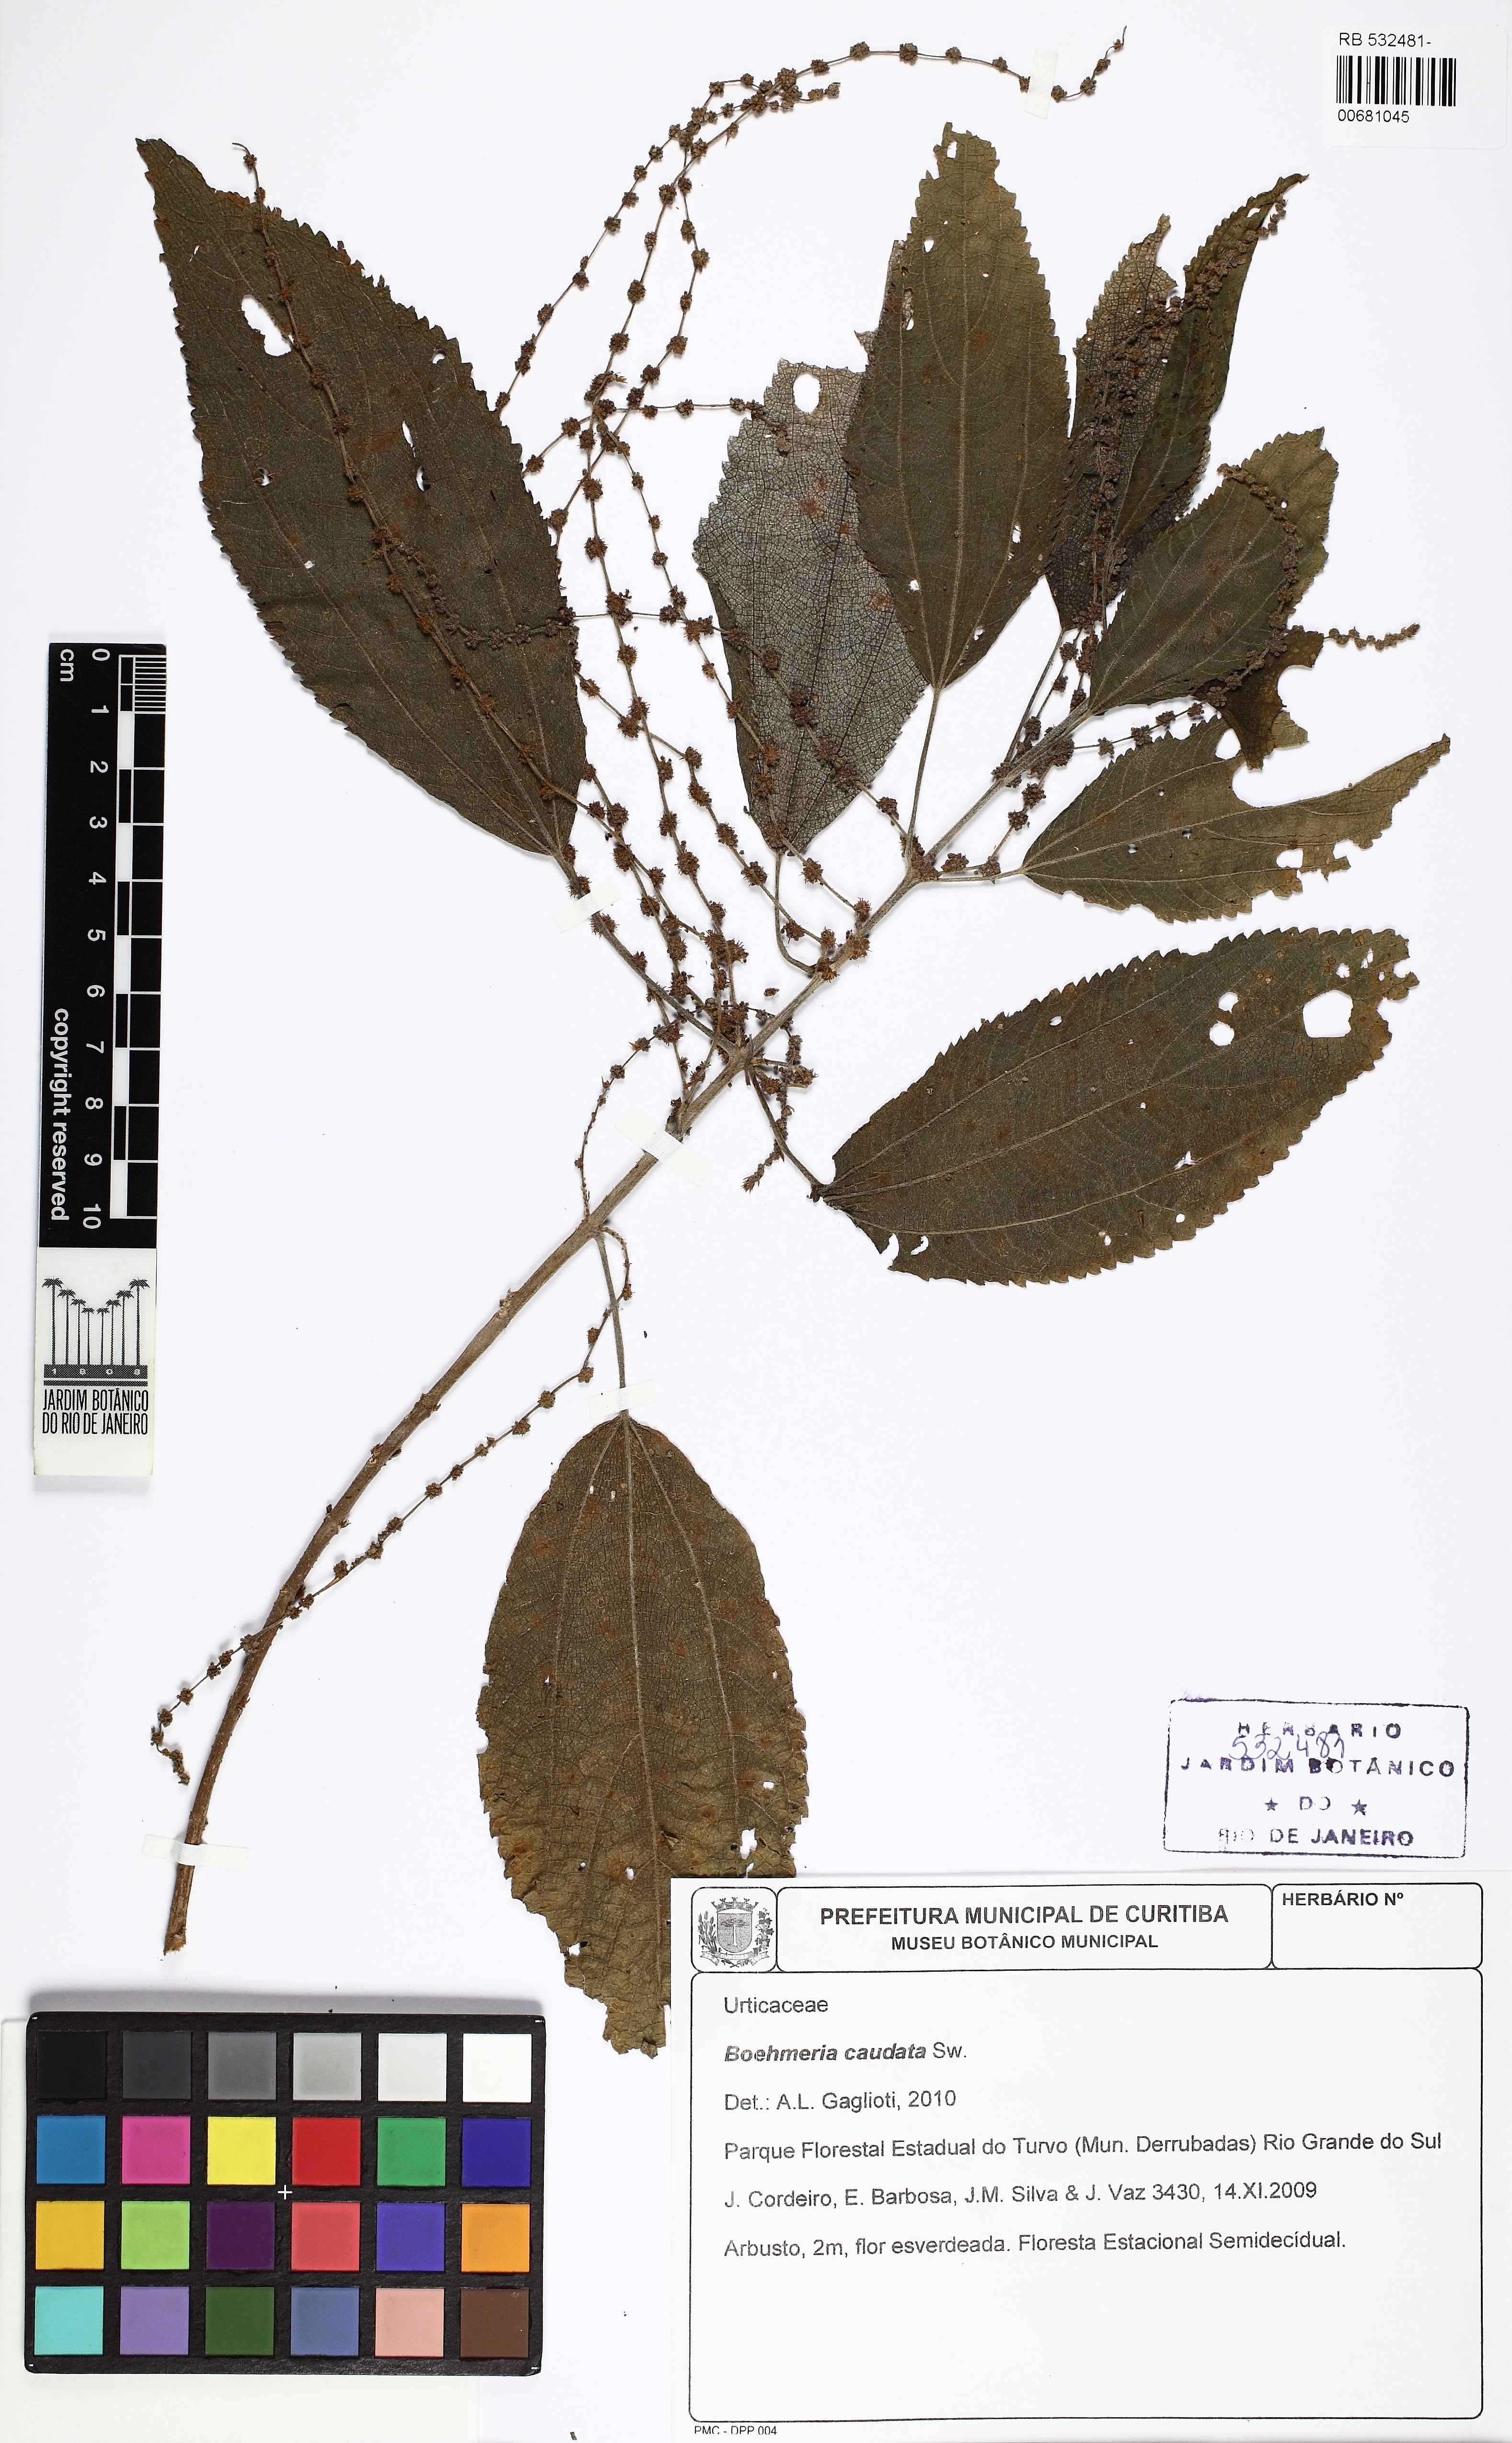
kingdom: Plantae
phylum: Tracheophyta
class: Magnoliopsida
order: Rosales
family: Urticaceae
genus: Boehmeria
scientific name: Boehmeria caudata
